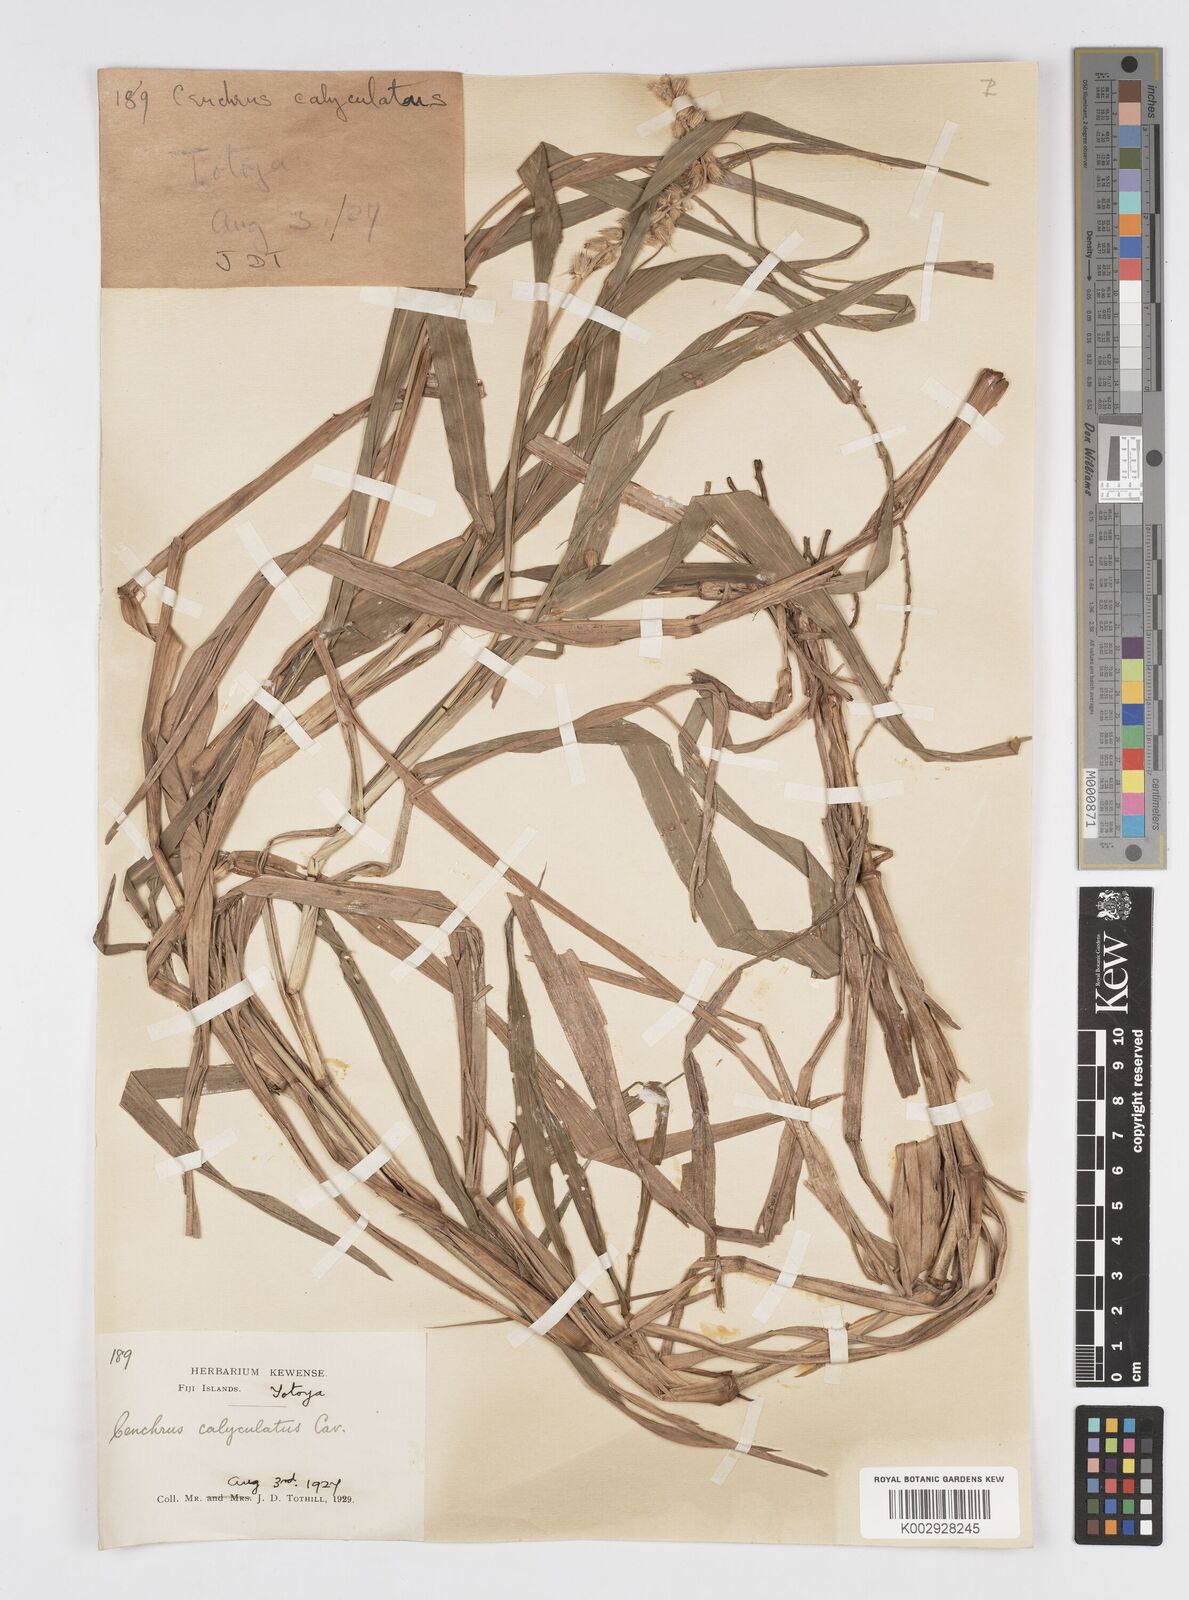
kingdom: Plantae
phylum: Tracheophyta
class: Liliopsida
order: Poales
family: Poaceae
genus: Cenchrus
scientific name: Cenchrus caliculatus
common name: Large bur grass
